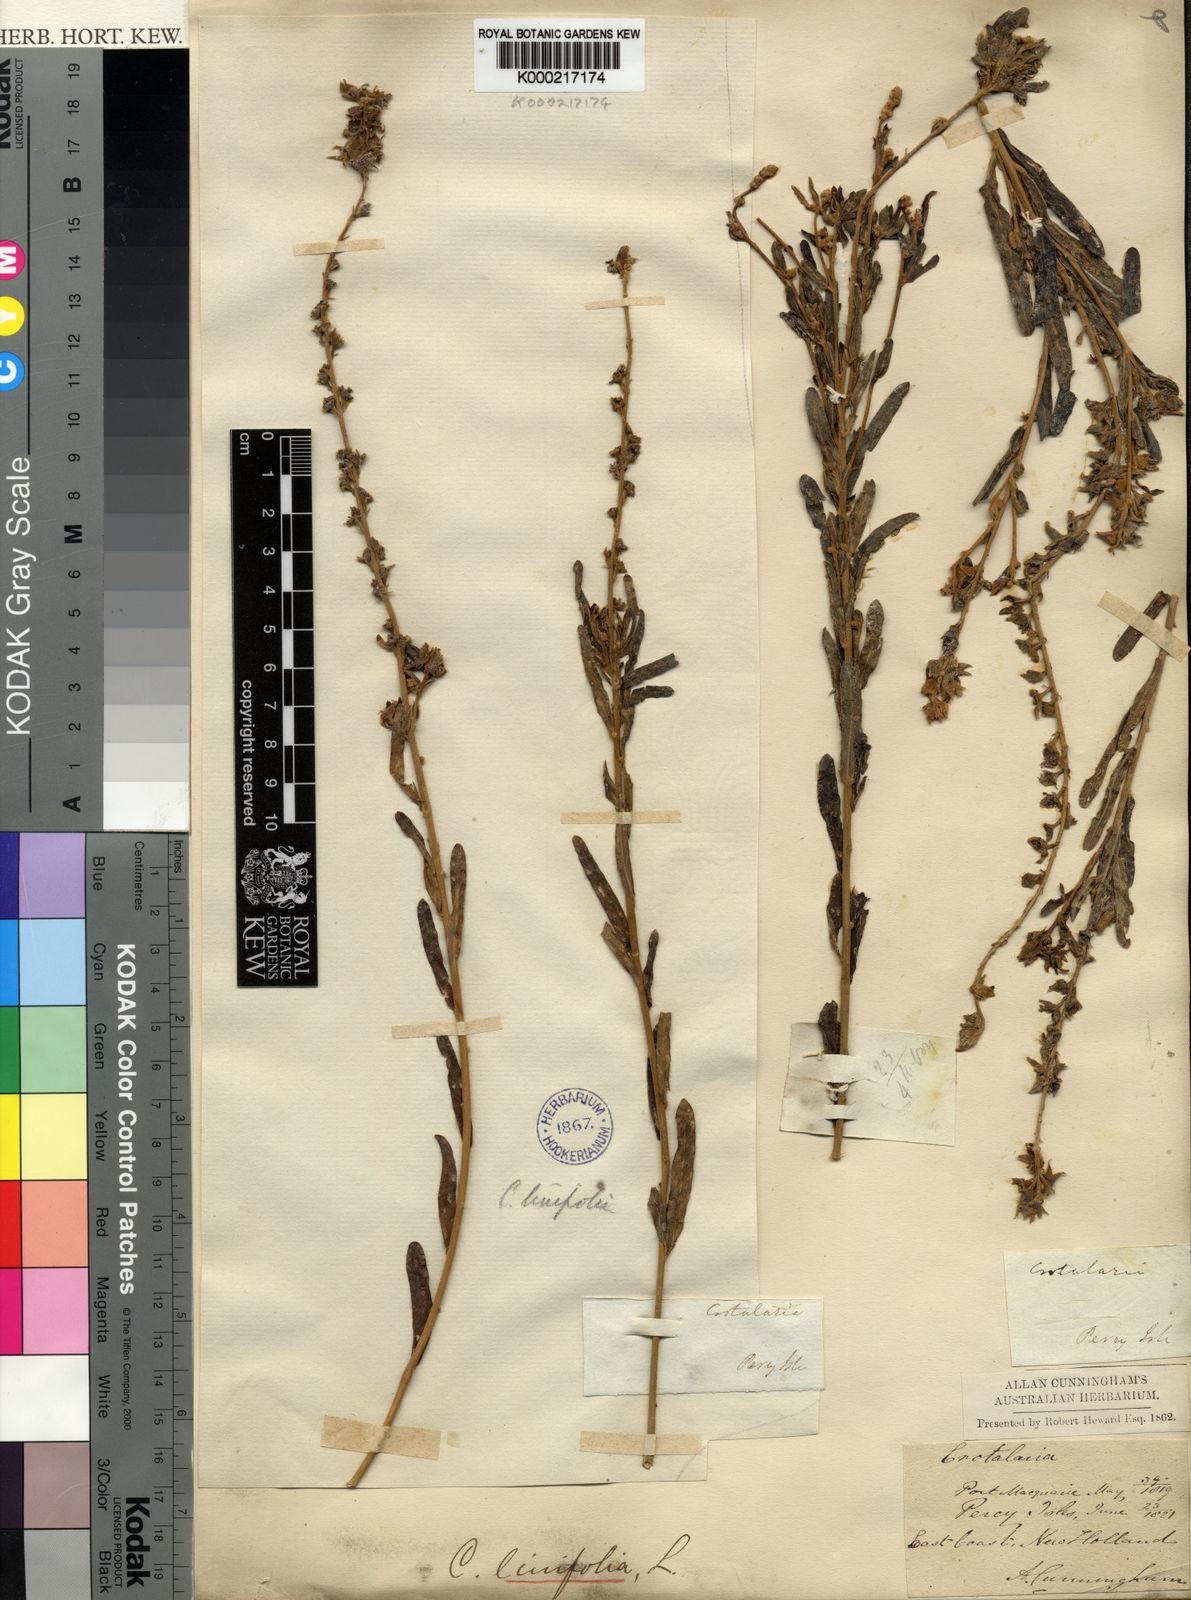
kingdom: Plantae
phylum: Tracheophyta
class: Magnoliopsida
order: Fabales
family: Fabaceae
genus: Crotalaria
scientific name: Crotalaria linifolia
